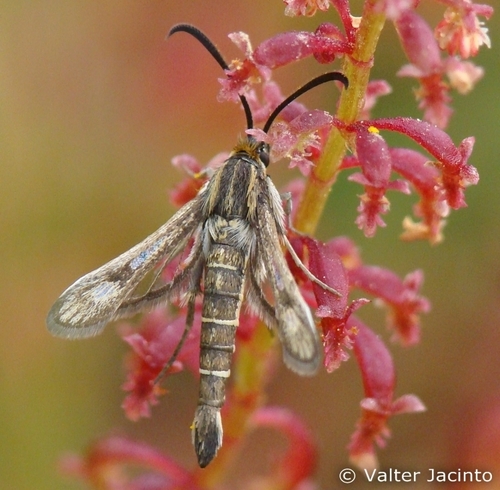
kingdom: Animalia
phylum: Arthropoda
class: Insecta
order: Lepidoptera
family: Sesiidae
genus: Pyropteron
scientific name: Pyropteron meriaeformis
